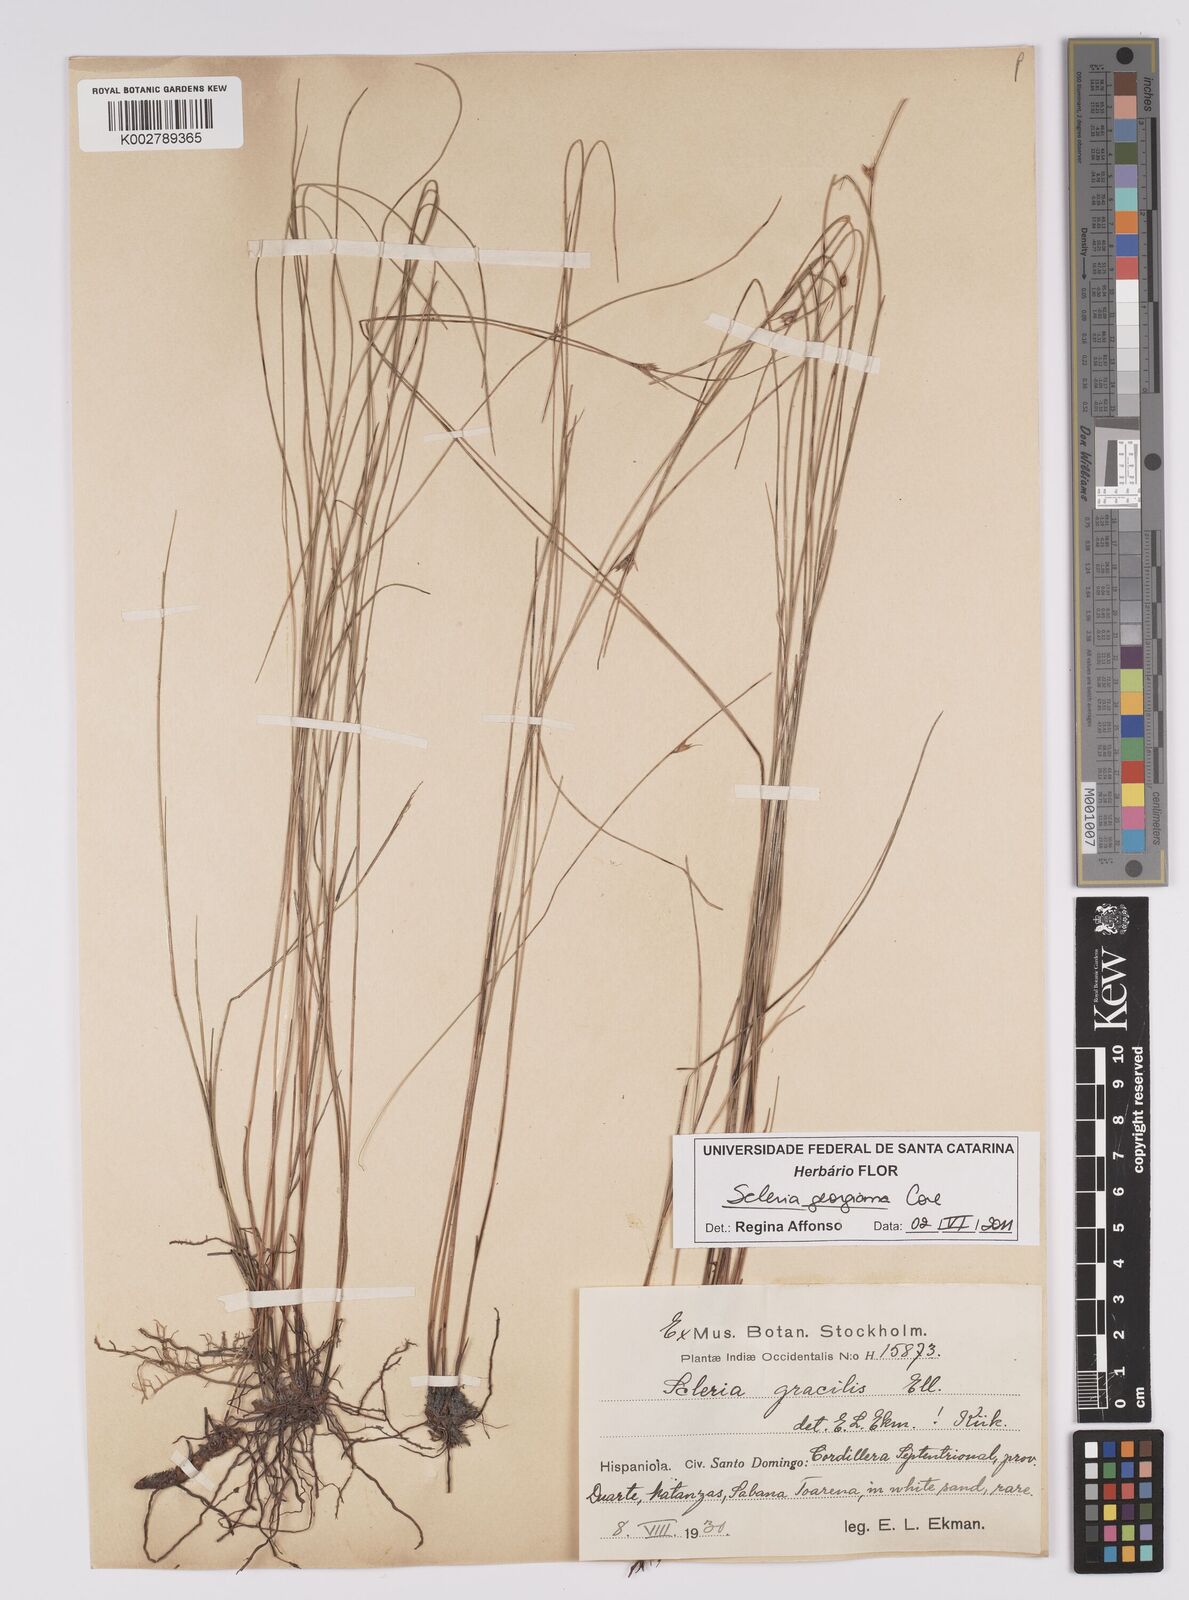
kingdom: Plantae
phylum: Tracheophyta
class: Liliopsida
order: Poales
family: Cyperaceae
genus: Scleria
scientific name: Scleria georgiana
